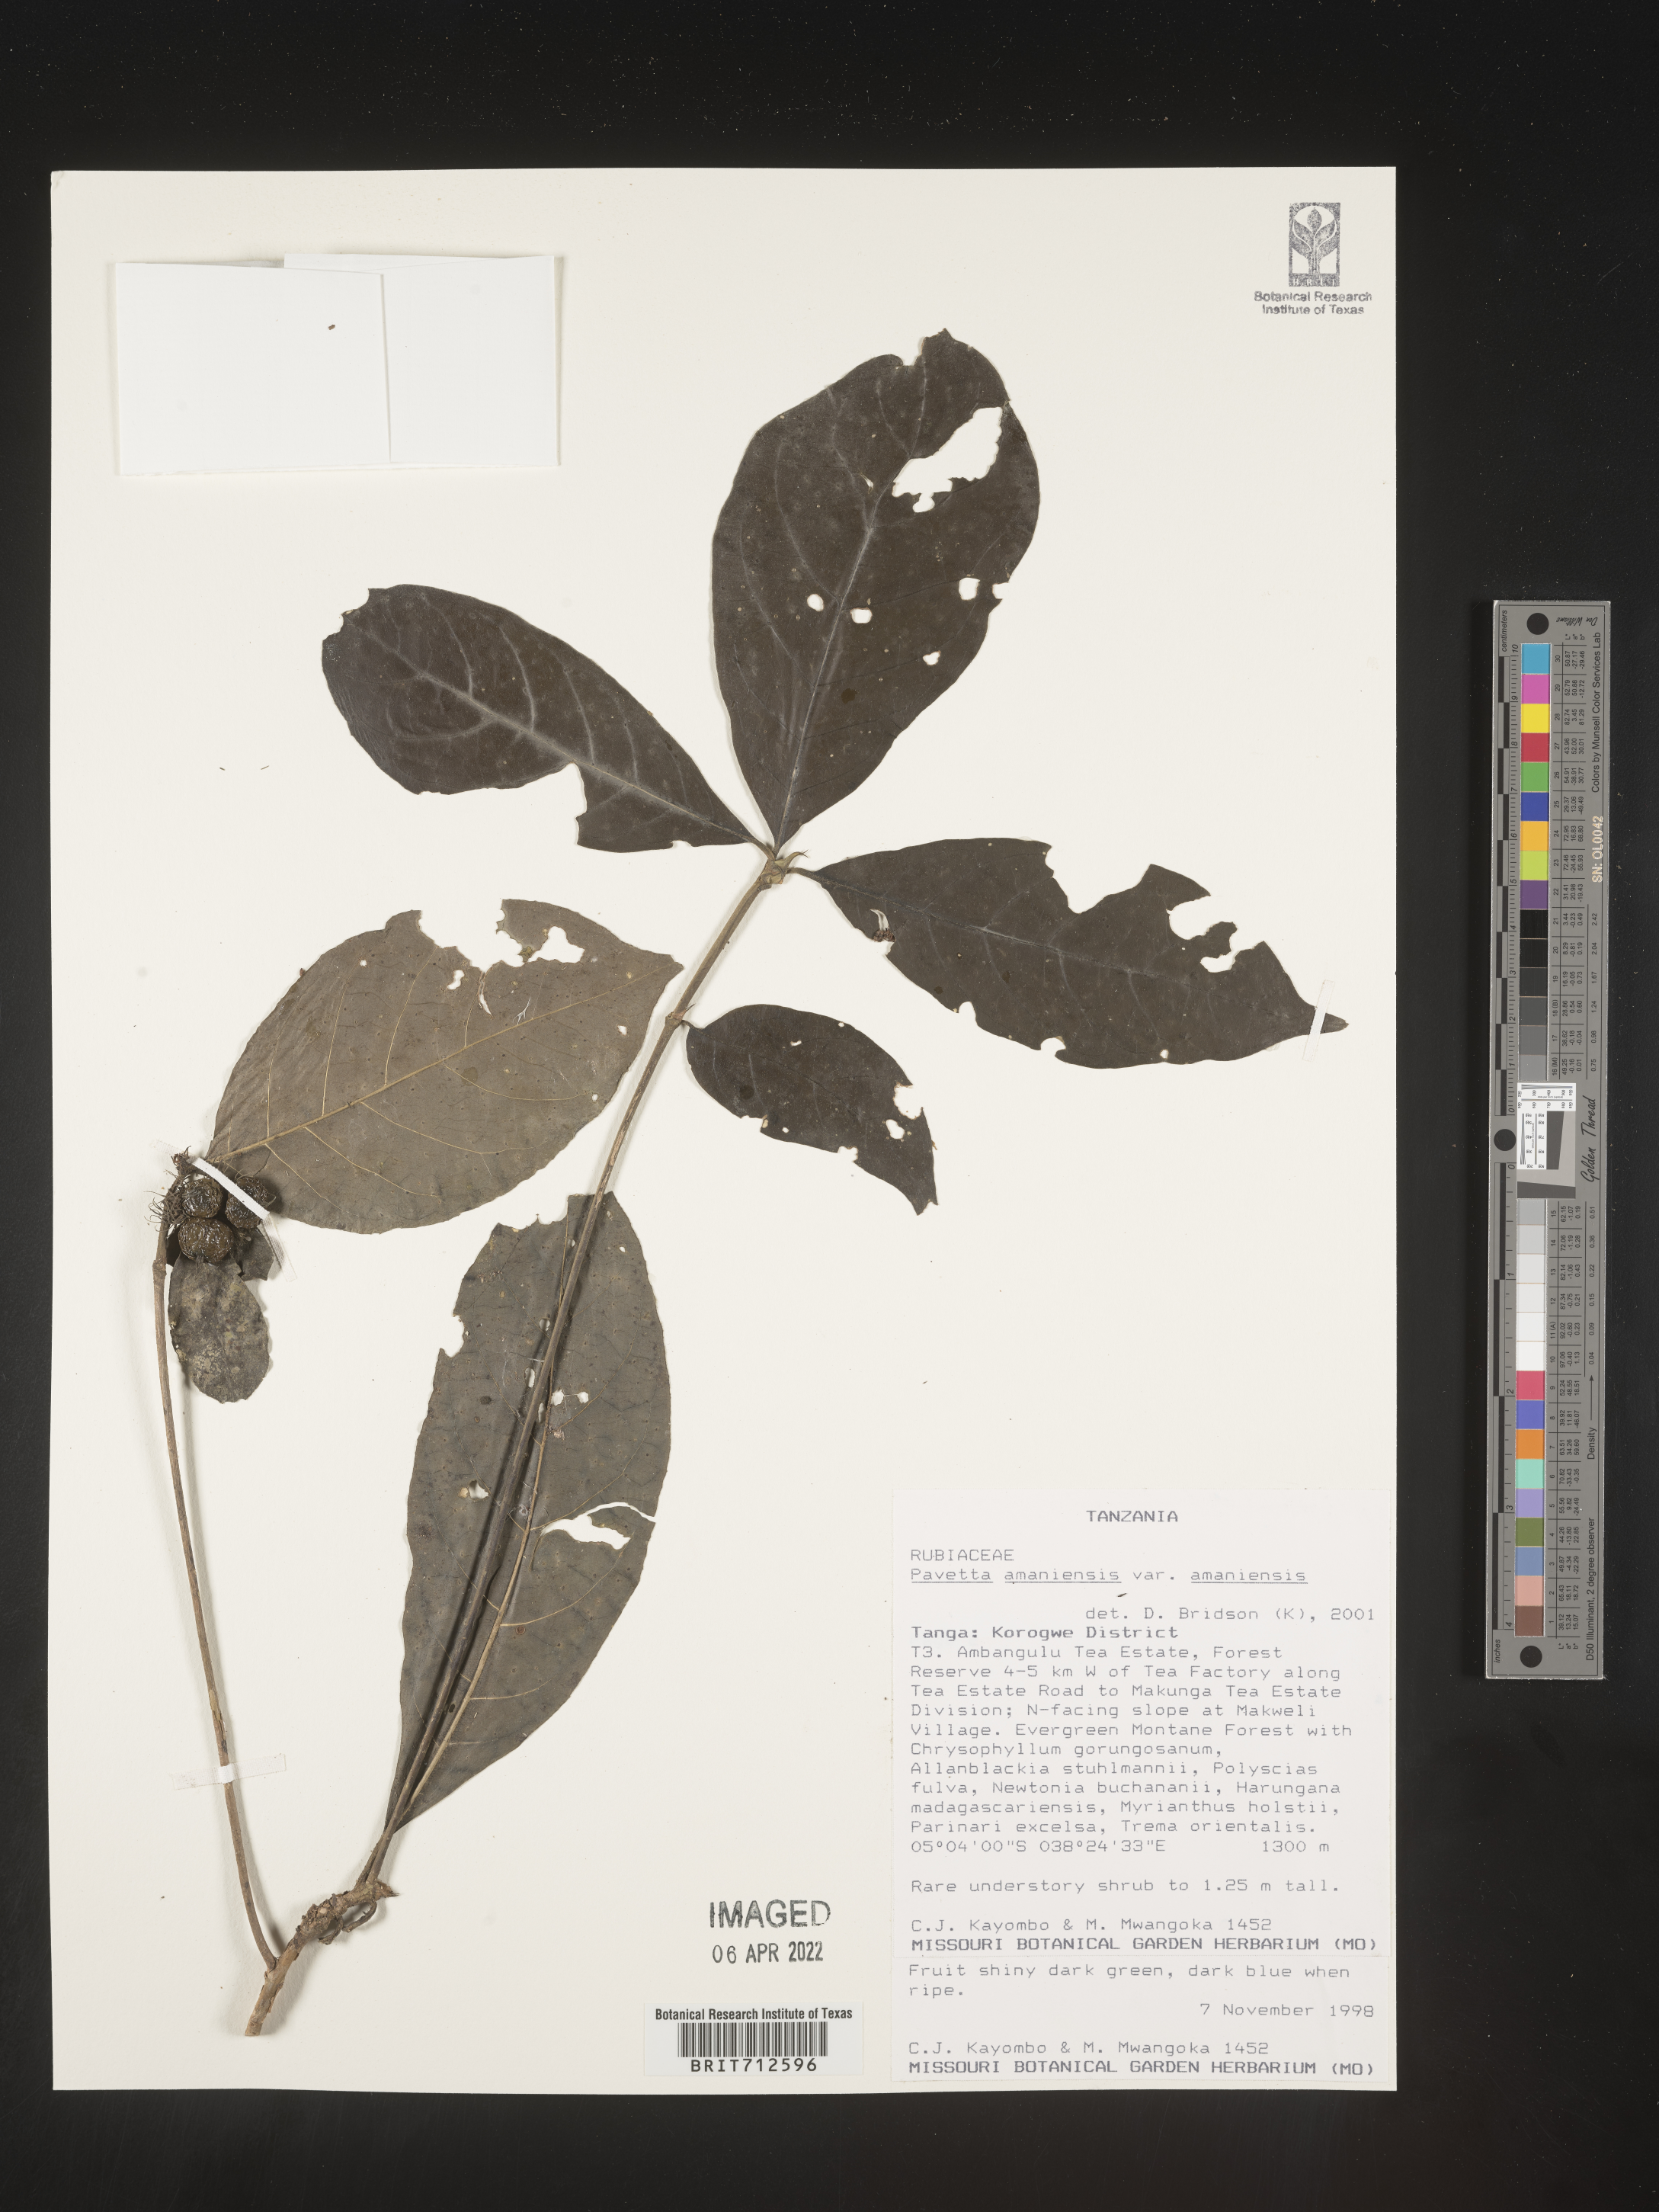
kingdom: Plantae
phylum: Tracheophyta
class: Magnoliopsida
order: Gentianales
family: Rubiaceae
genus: Pavetta
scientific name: Pavetta
